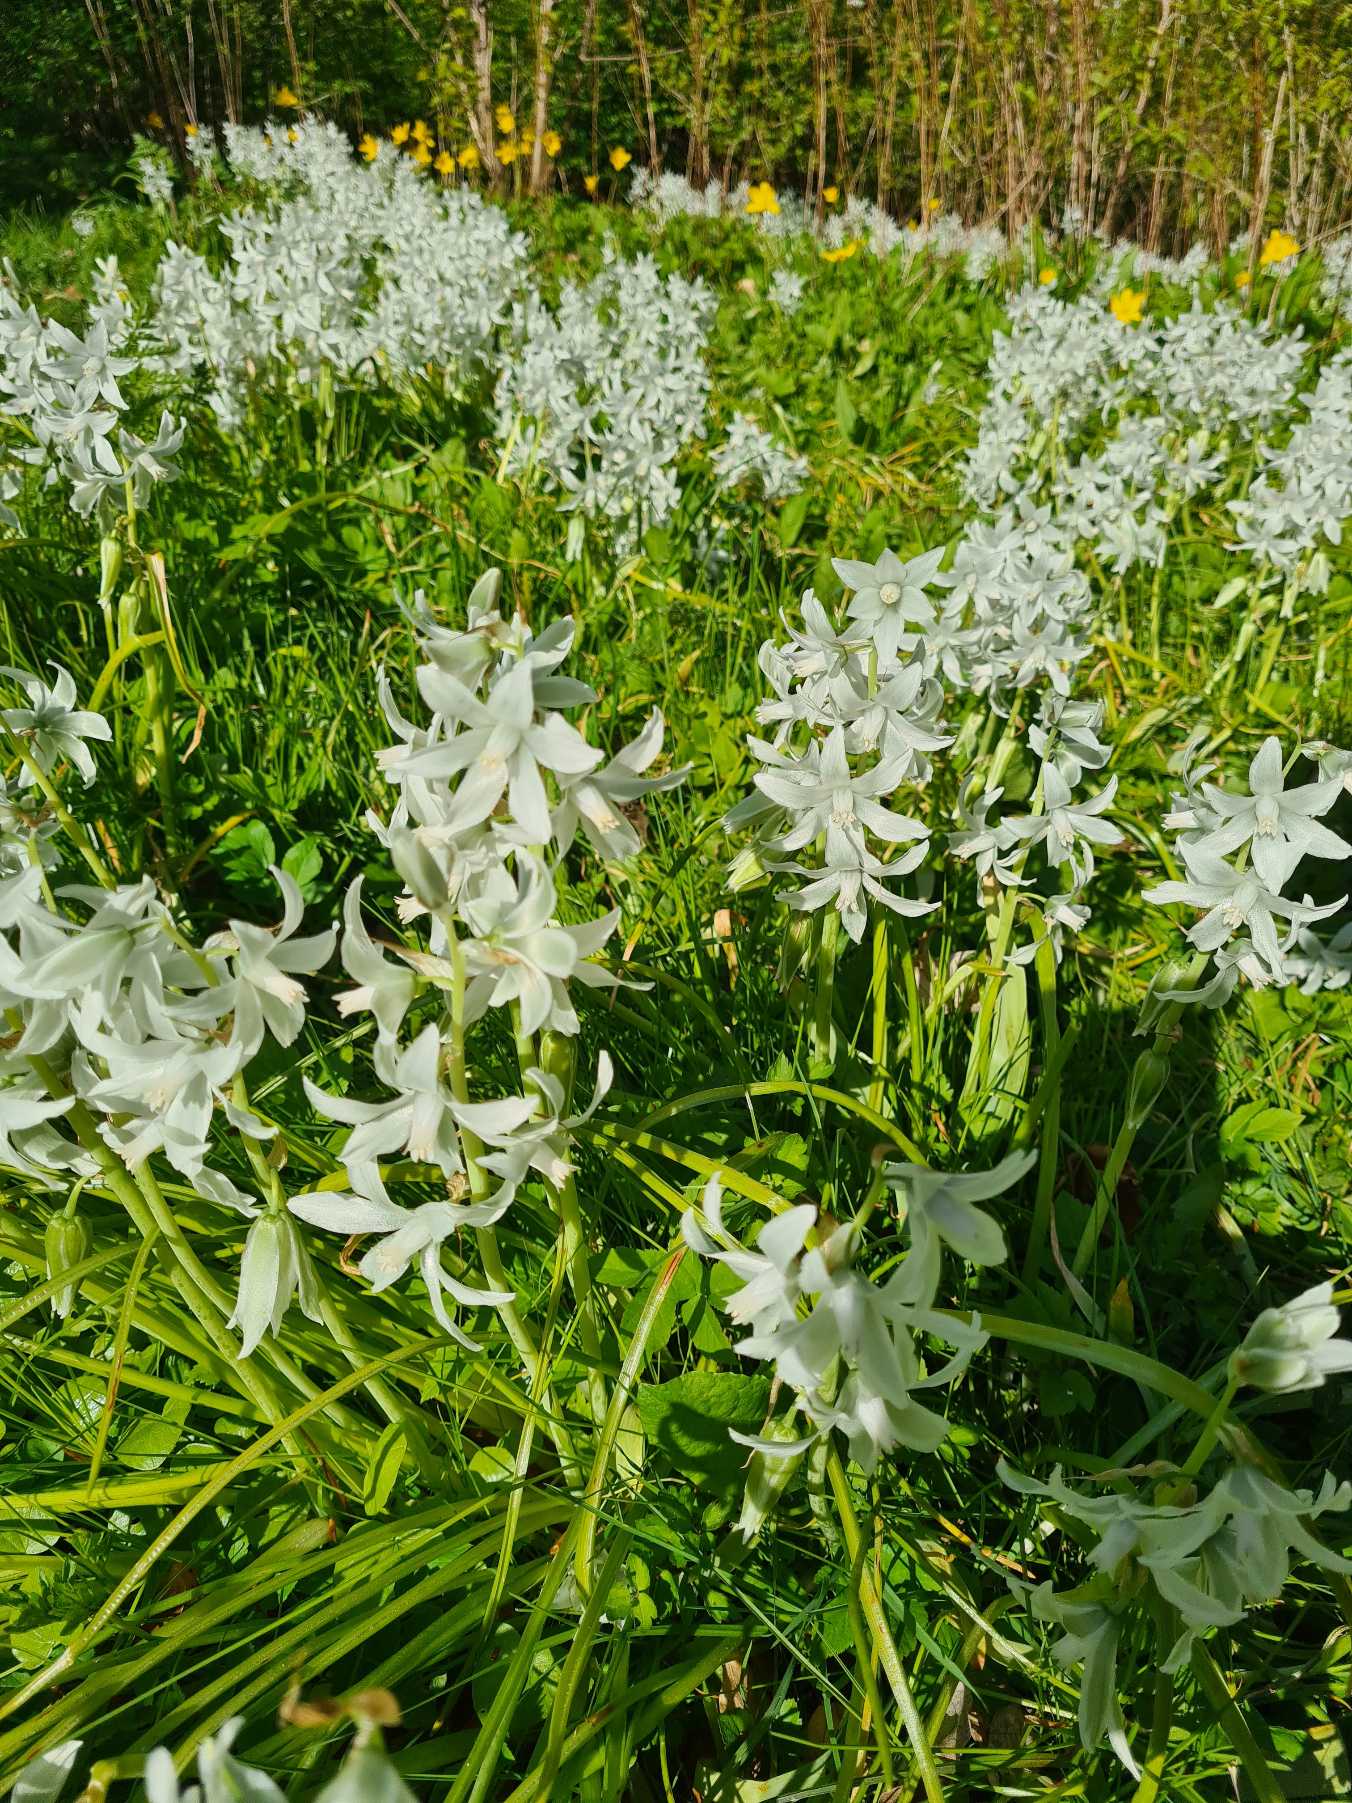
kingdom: Plantae
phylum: Tracheophyta
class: Liliopsida
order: Asparagales
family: Asparagaceae
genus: Ornithogalum
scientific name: Ornithogalum nutans
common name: Nikkende fuglemælk
